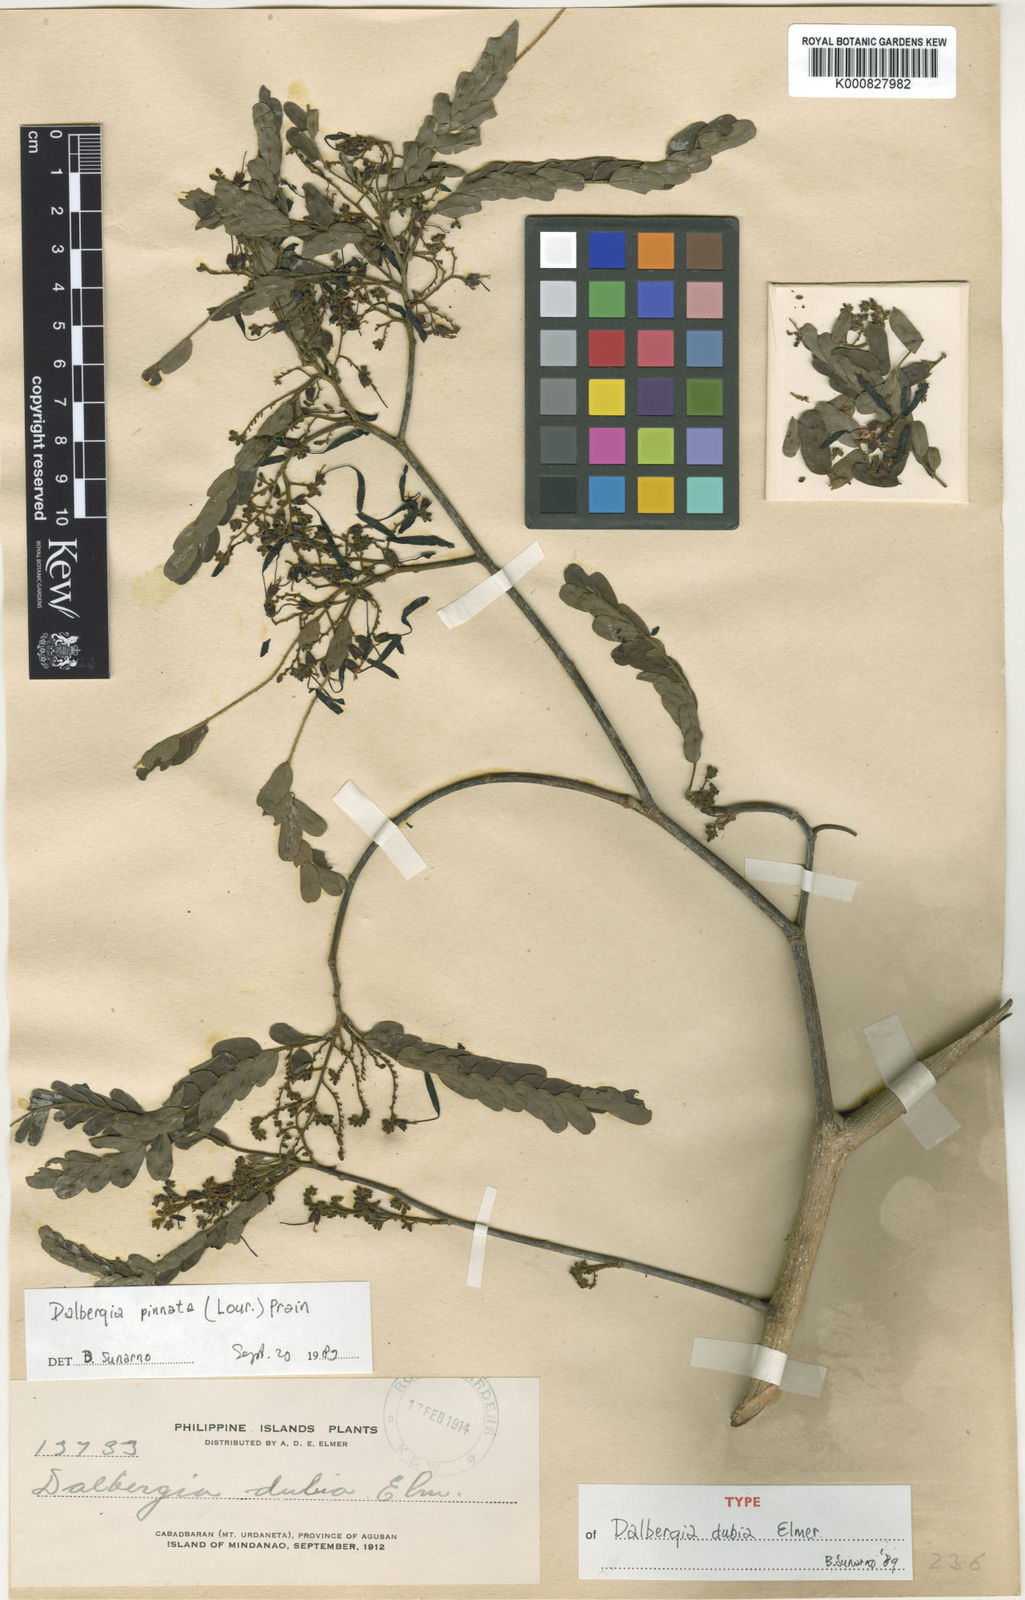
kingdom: Plantae
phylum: Tracheophyta
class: Magnoliopsida
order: Fabales
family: Fabaceae
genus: Dalbergia
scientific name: Dalbergia pinnata
